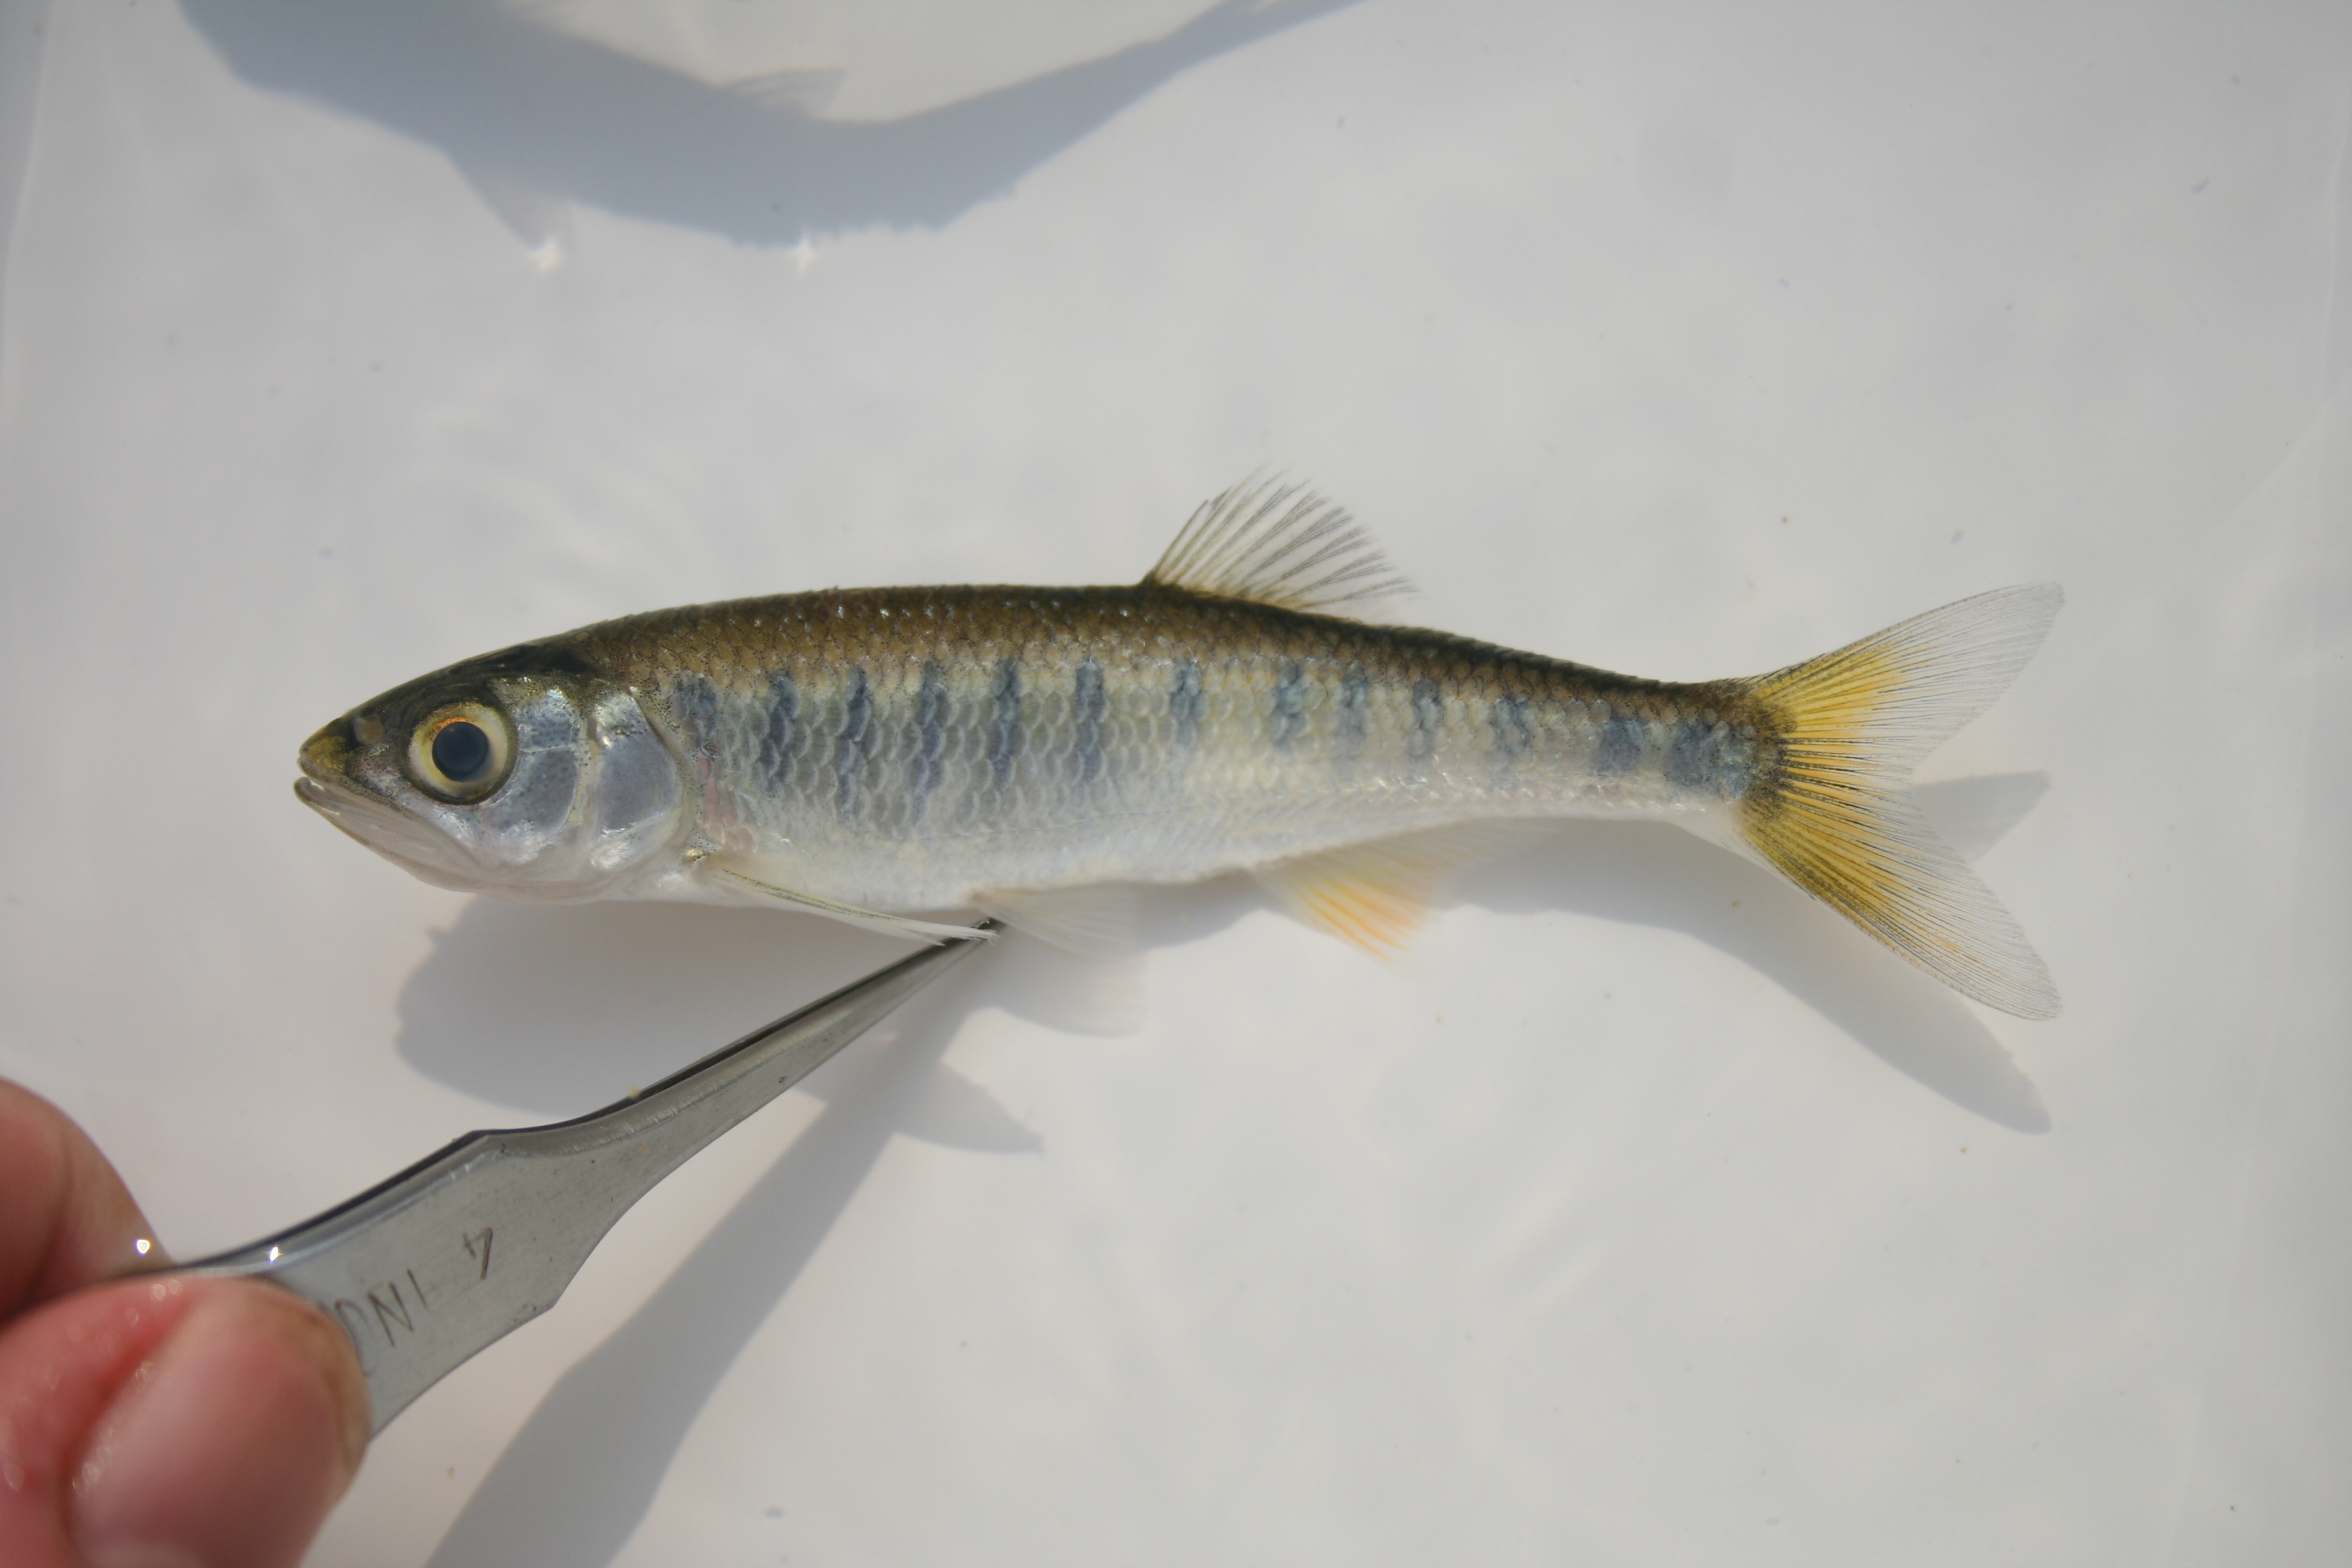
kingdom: Animalia
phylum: Chordata
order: Cypriniformes
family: Cyprinidae
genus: Raiamas
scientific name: Raiamas ansorgii
